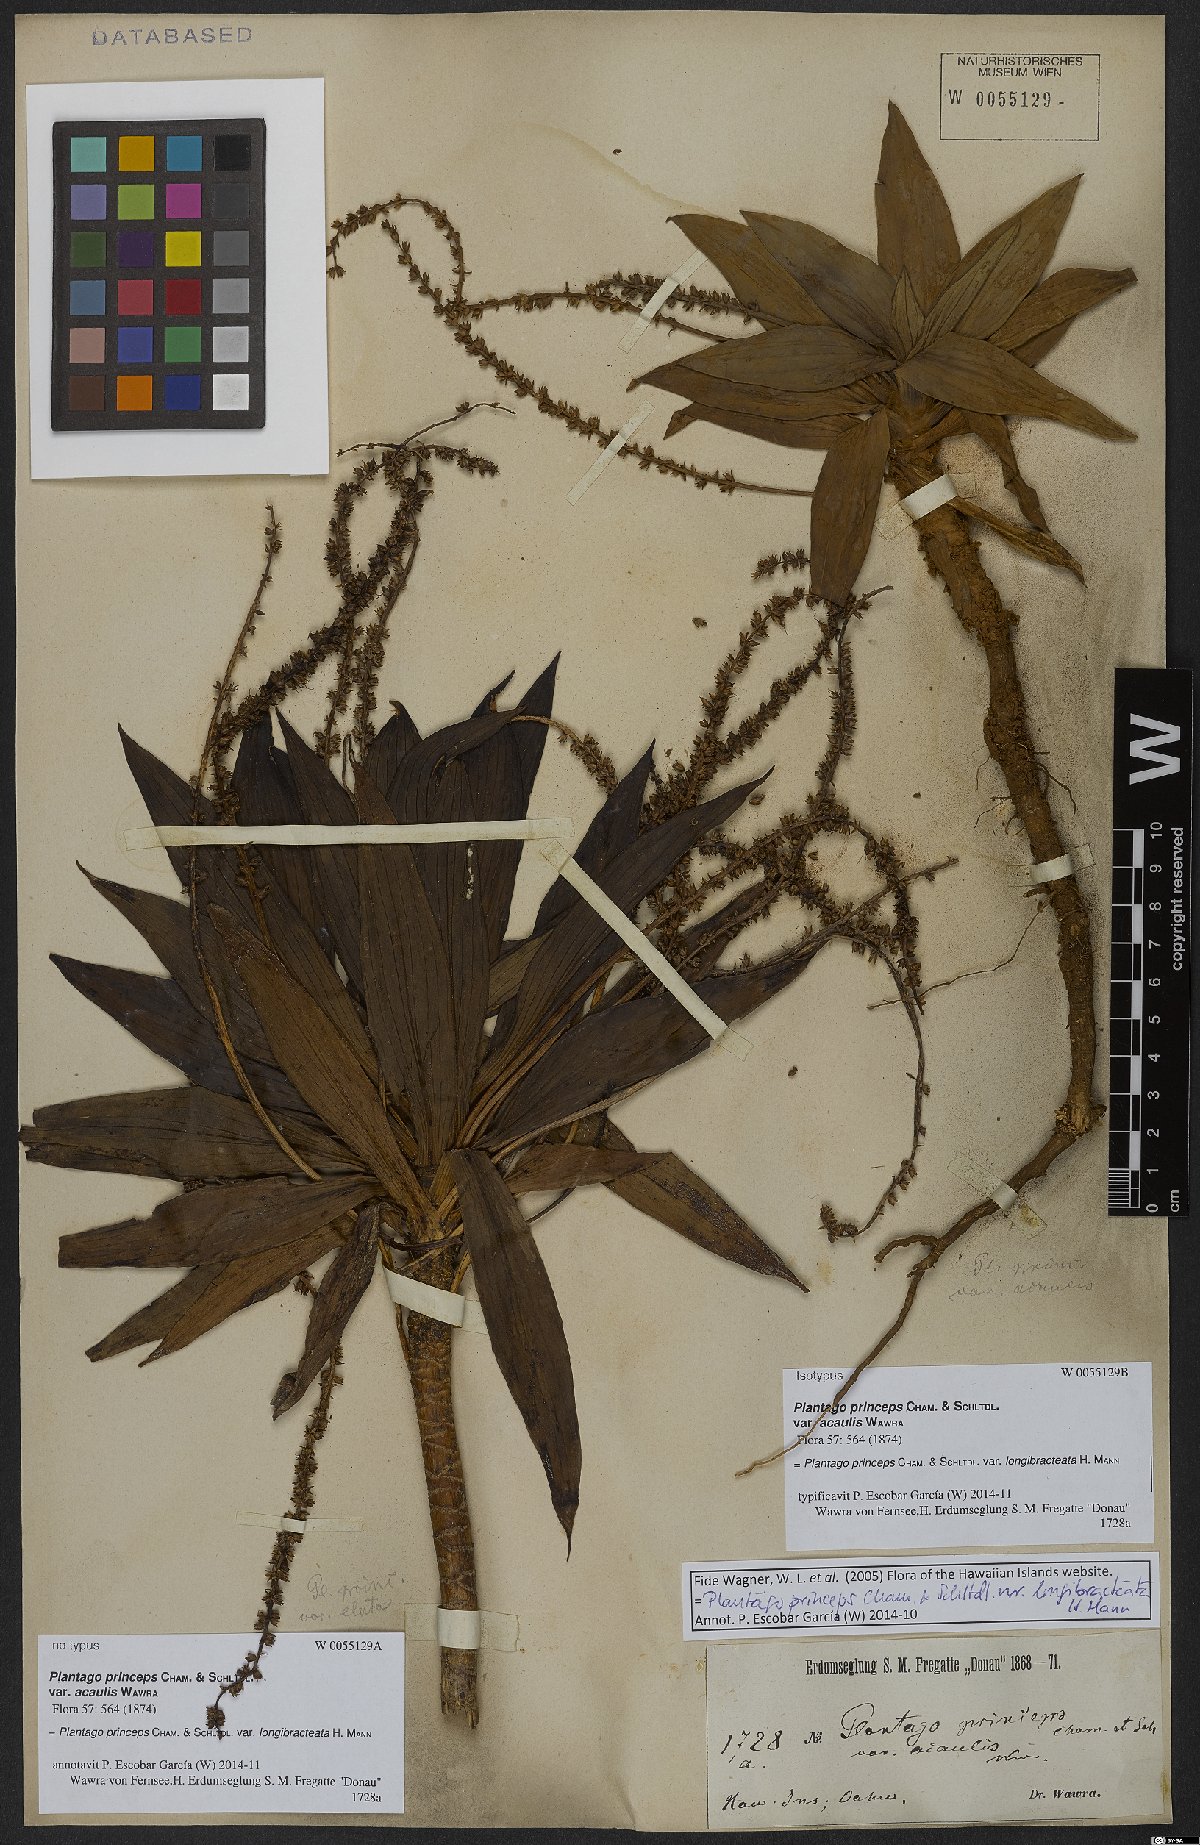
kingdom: Plantae
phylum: Tracheophyta
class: Magnoliopsida
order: Lamiales
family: Plantaginaceae
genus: Plantago
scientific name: Plantago princeps
